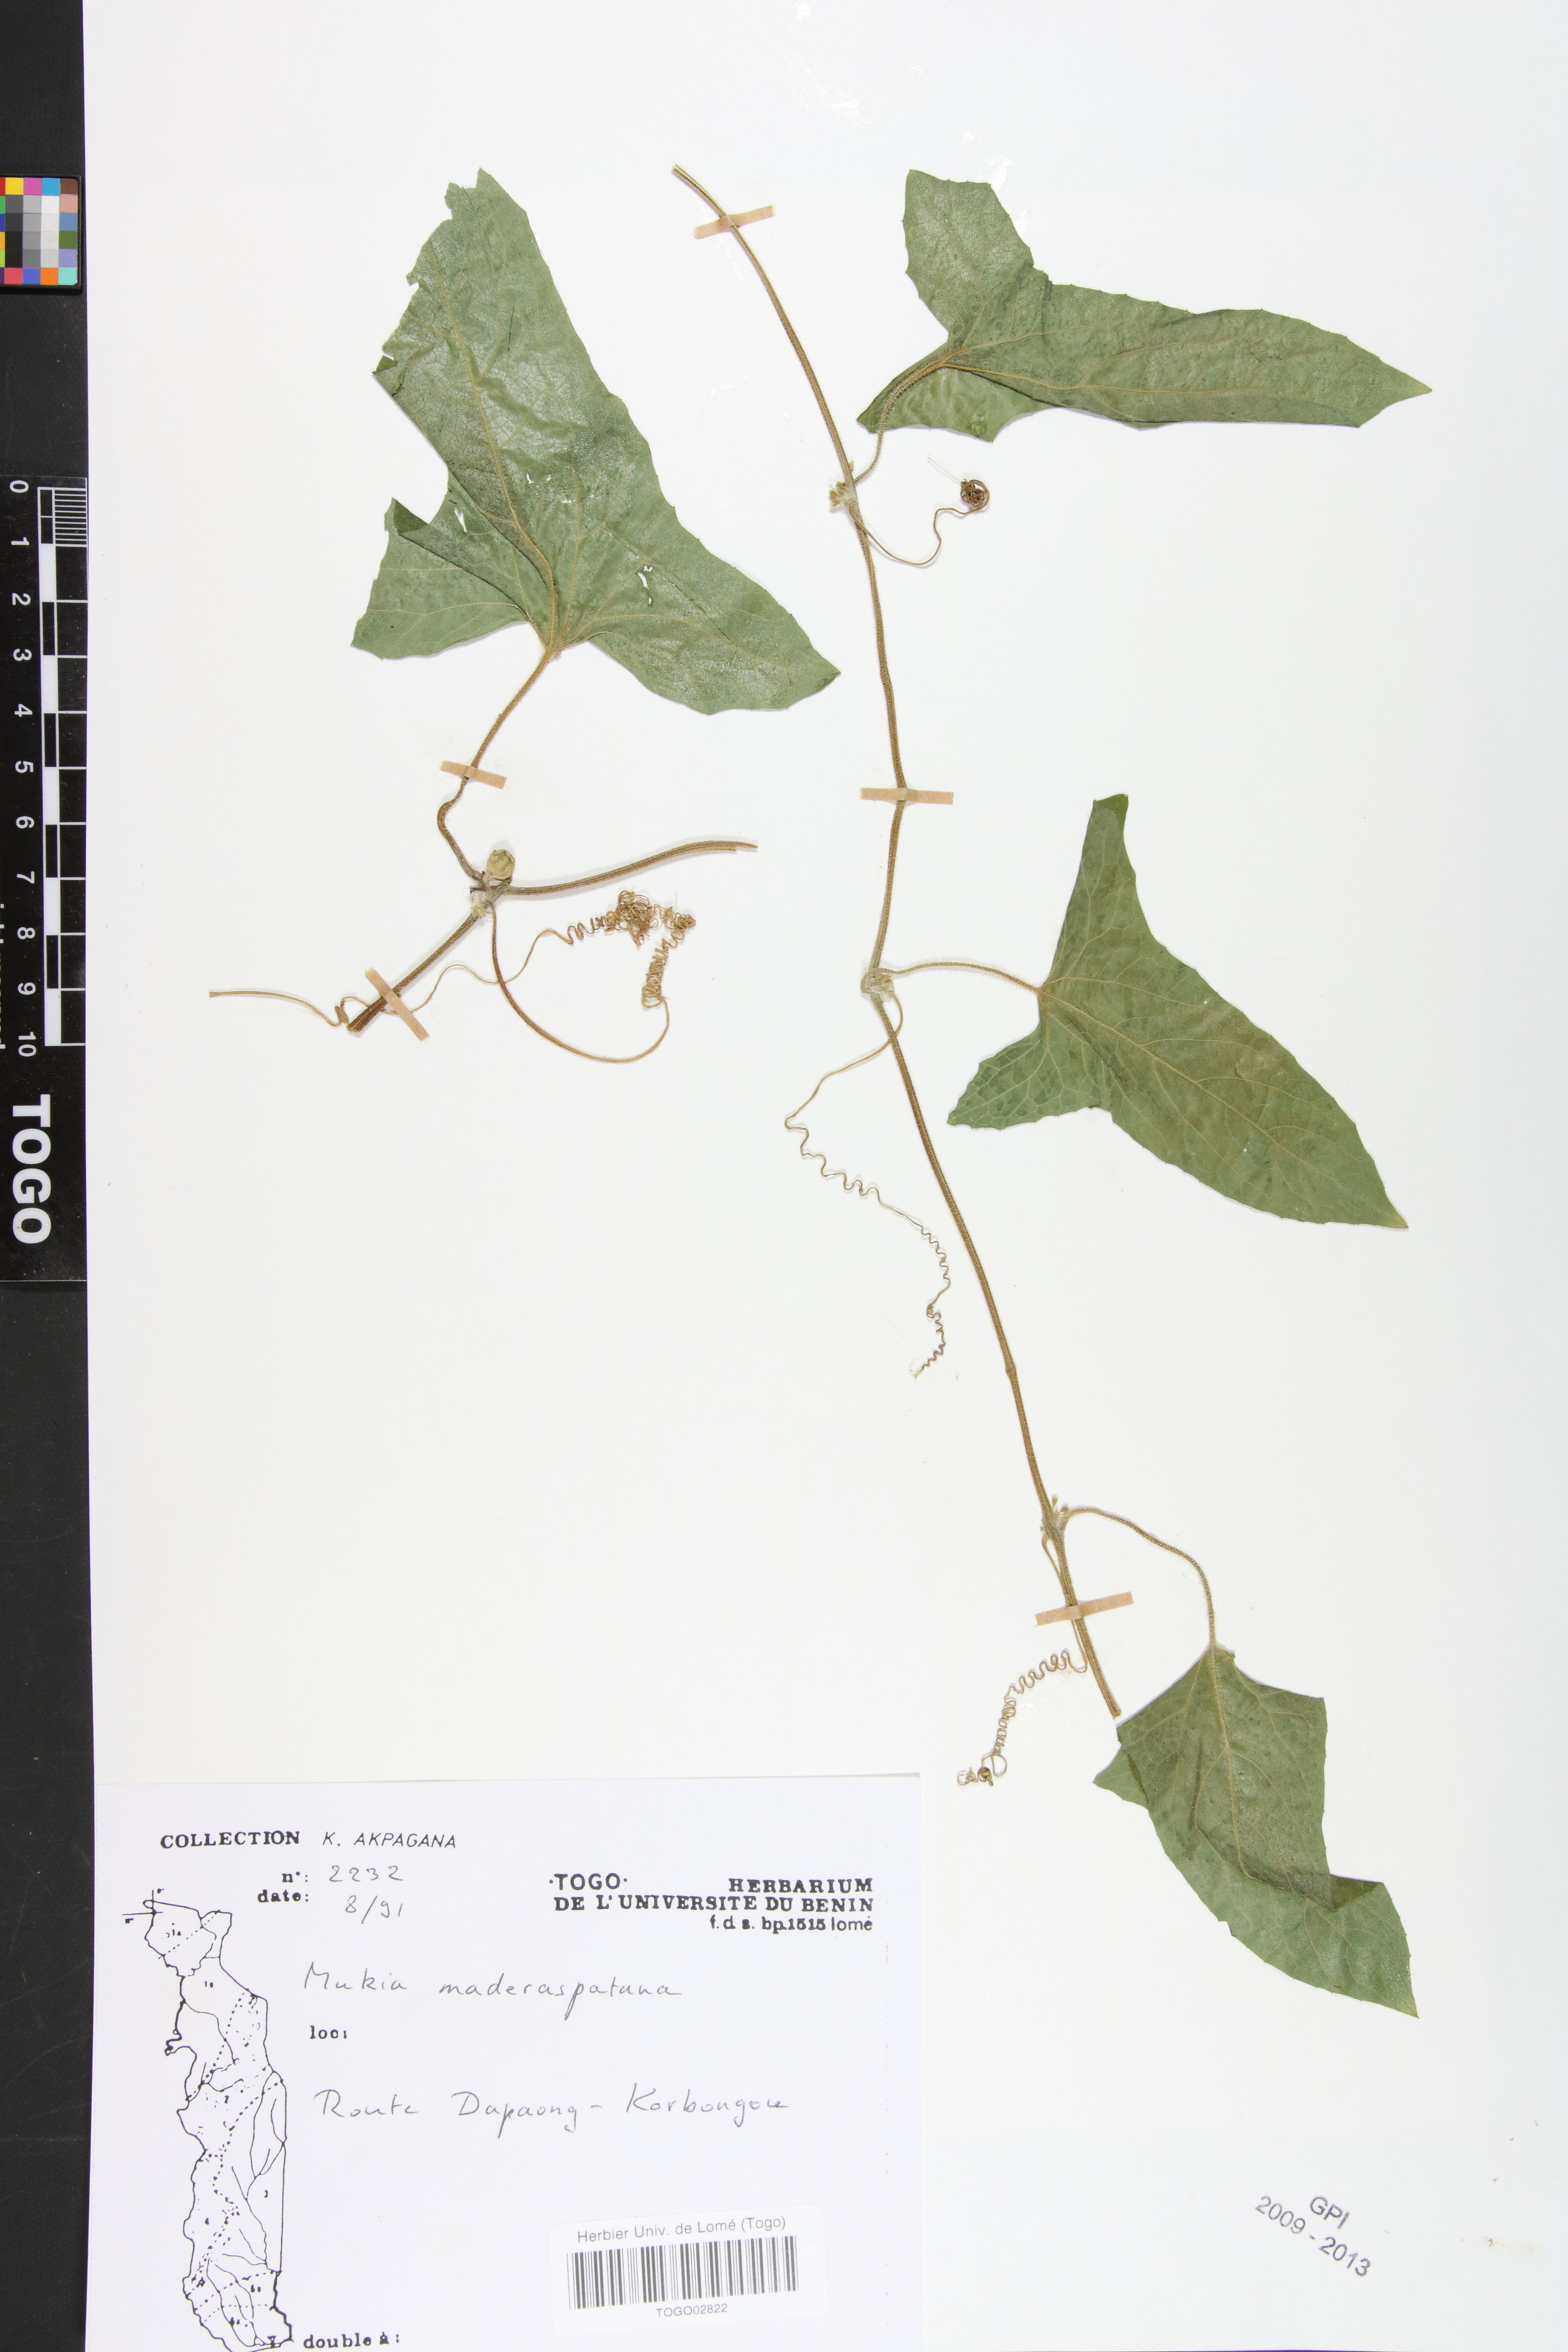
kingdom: Plantae
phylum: Tracheophyta
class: Magnoliopsida
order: Cucurbitales
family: Cucurbitaceae
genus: Cucumis
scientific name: Cucumis maderaspatanus
